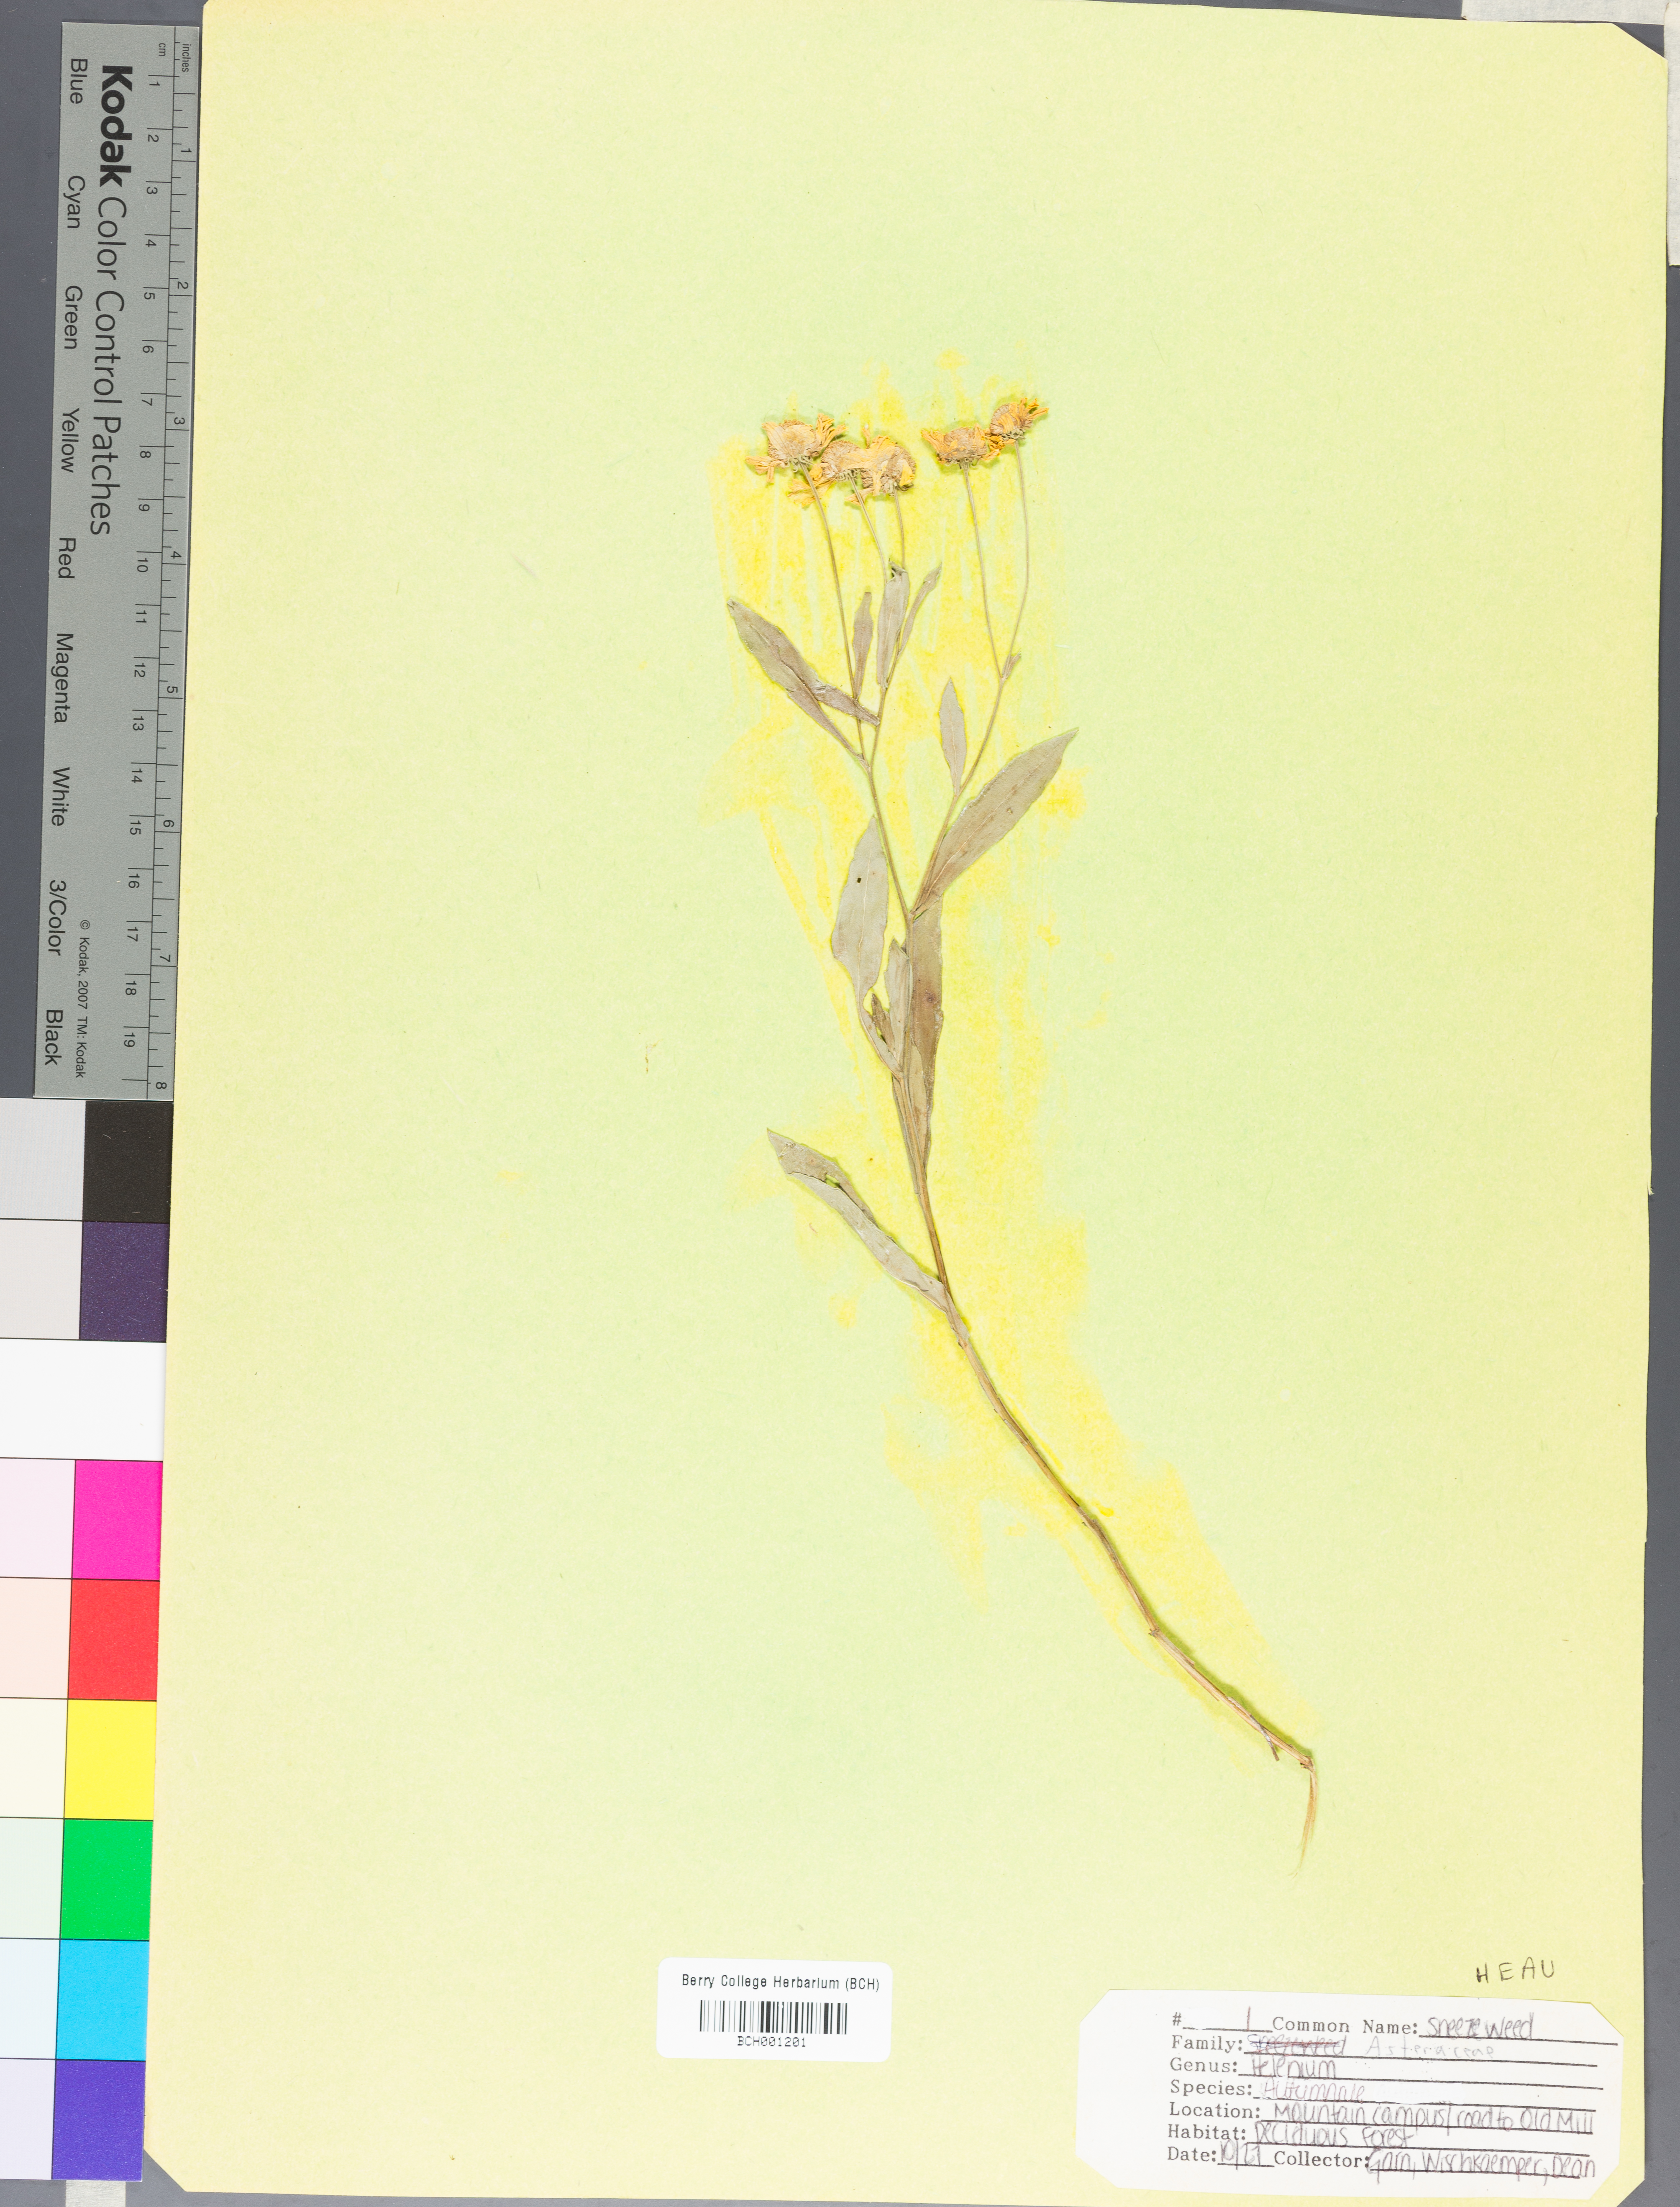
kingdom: Plantae
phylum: Tracheophyta
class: Magnoliopsida
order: Asterales
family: Asteraceae
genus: Helenium
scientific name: Helenium autumnale
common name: Sneezeweed
